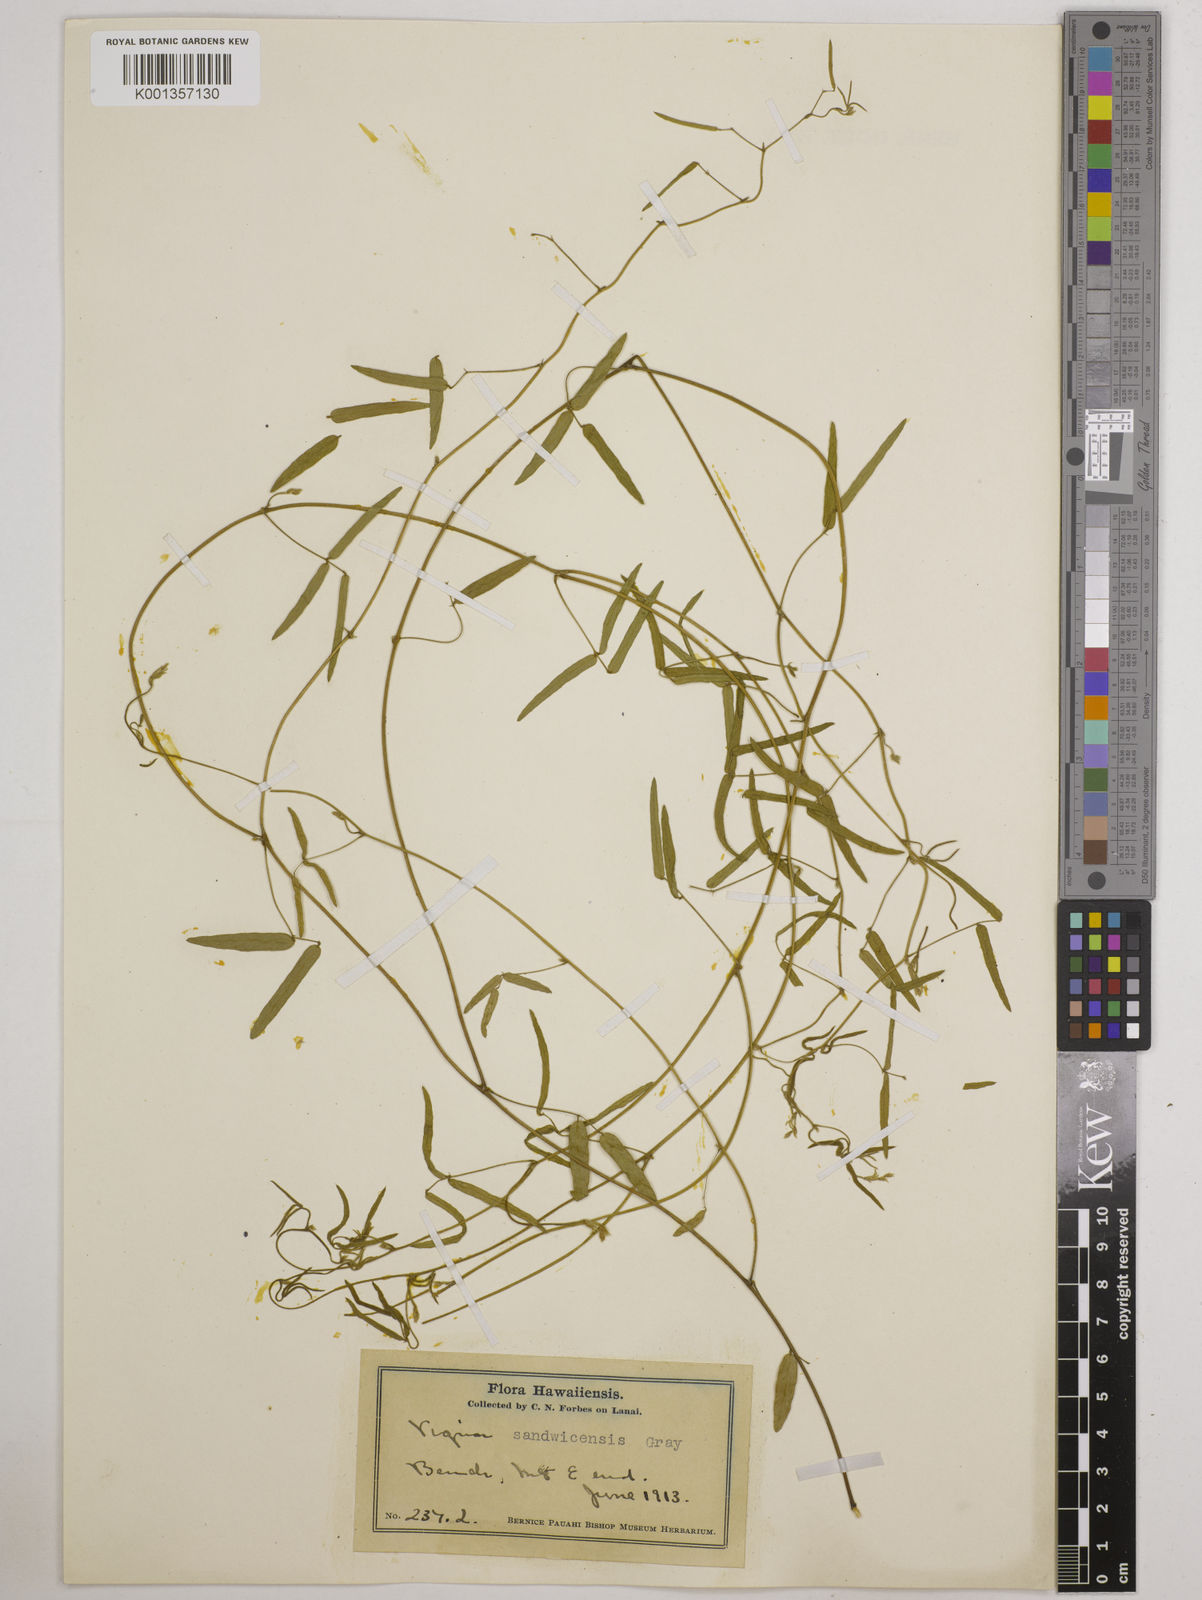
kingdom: Plantae
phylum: Tracheophyta
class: Magnoliopsida
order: Fabales
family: Fabaceae
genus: Vigna
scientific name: Vigna
